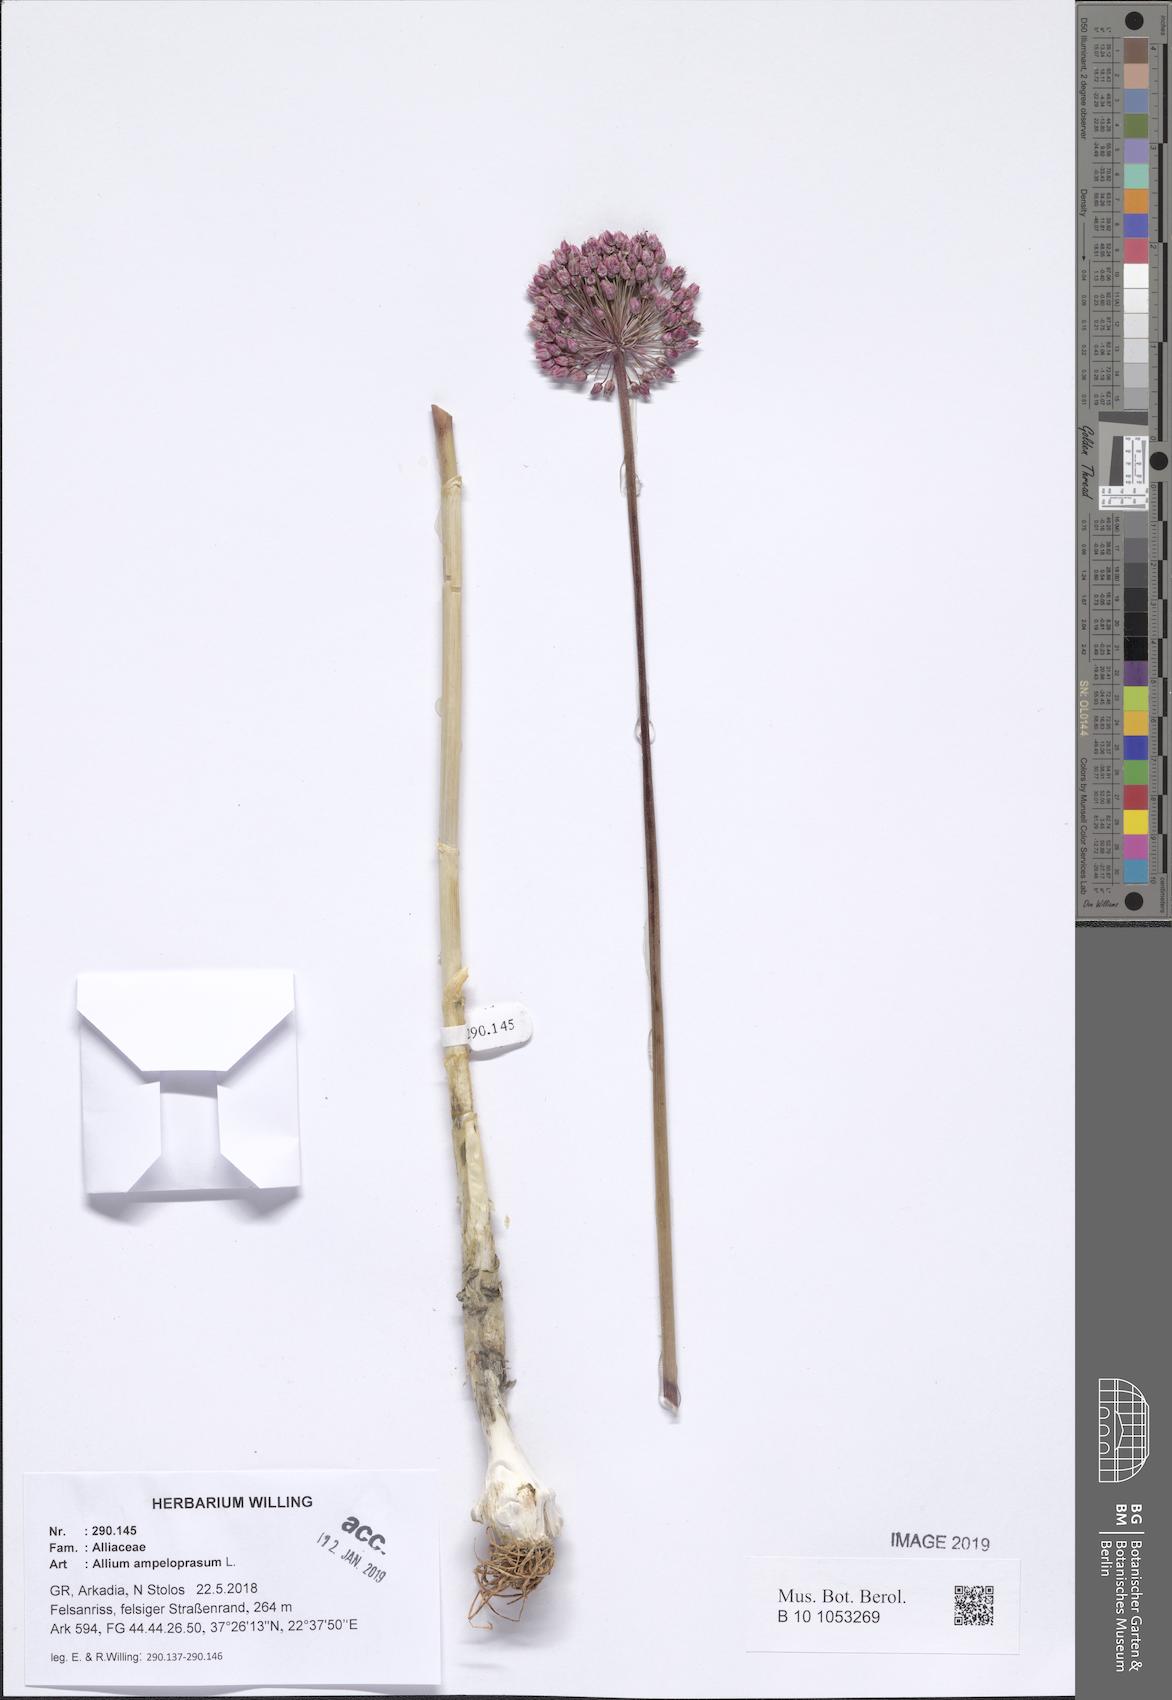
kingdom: Plantae
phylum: Tracheophyta
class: Liliopsida
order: Asparagales
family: Amaryllidaceae
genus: Allium
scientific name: Allium ampeloprasum
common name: Wild leek
